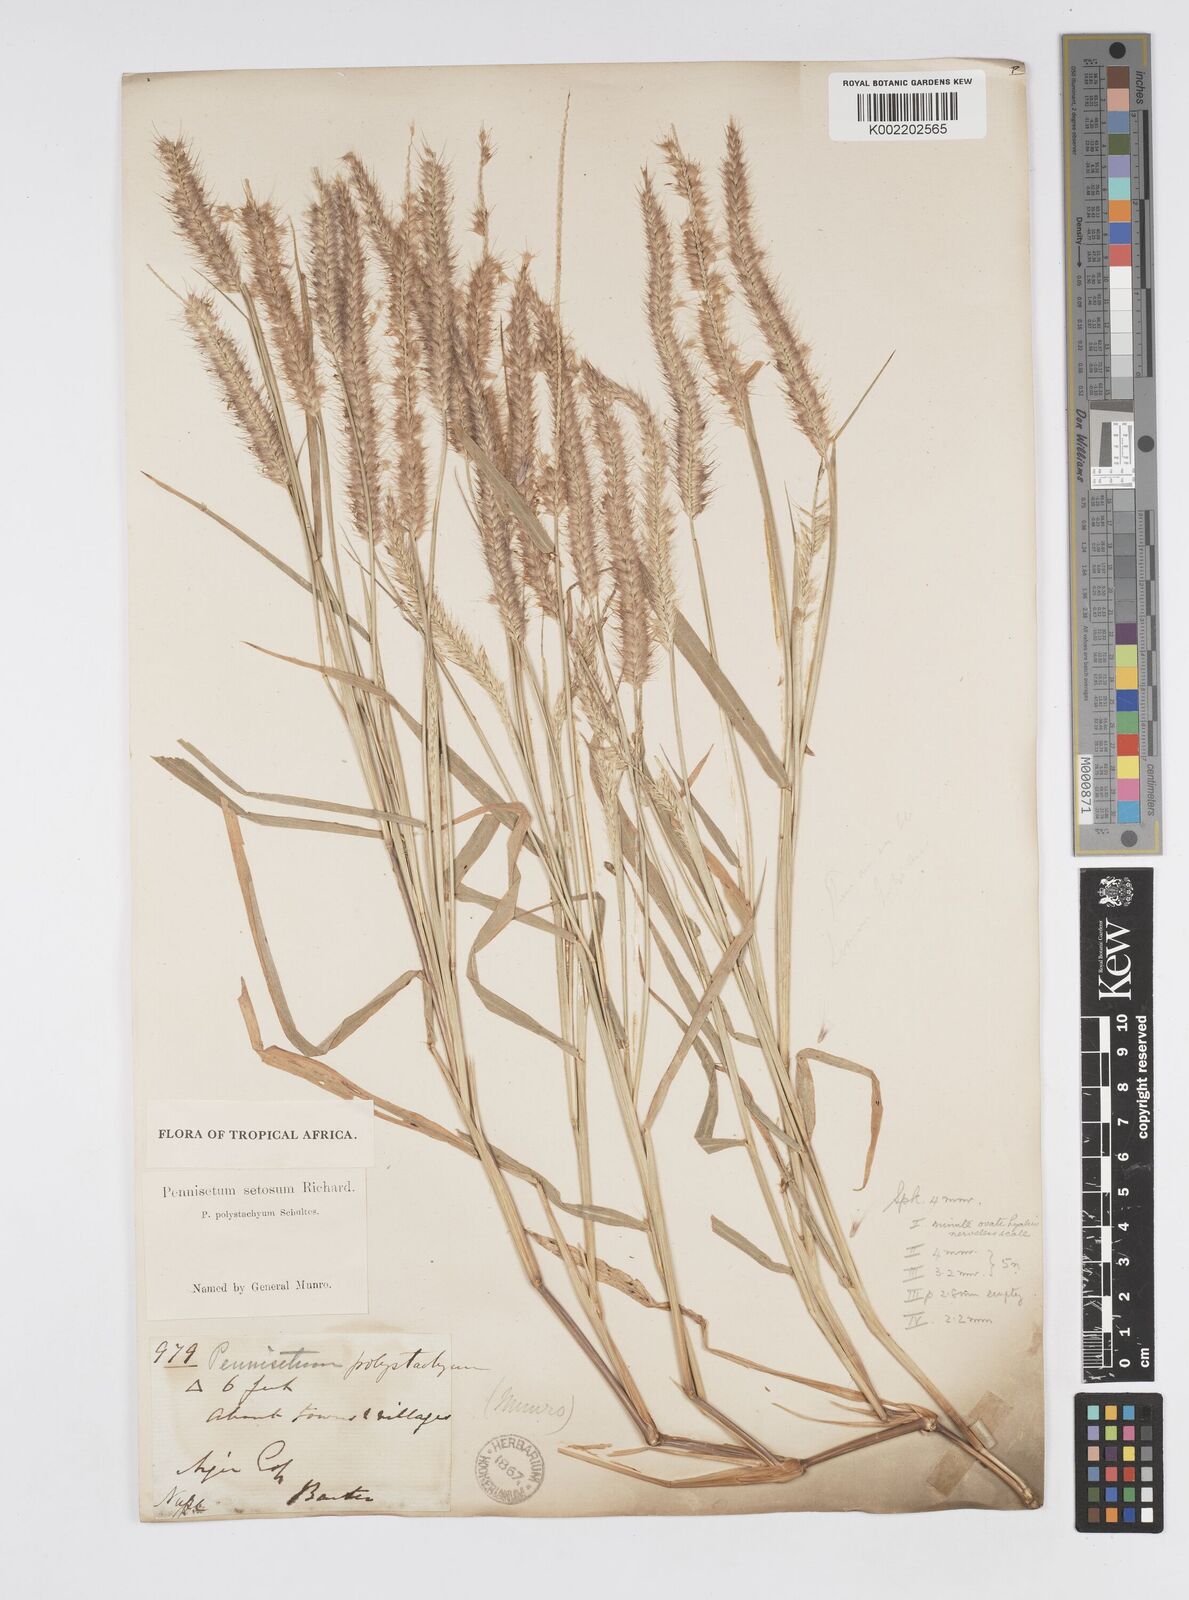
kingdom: Plantae
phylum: Tracheophyta
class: Liliopsida
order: Poales
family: Poaceae
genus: Setaria
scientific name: Setaria parviflora
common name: Knotroot bristle-grass
